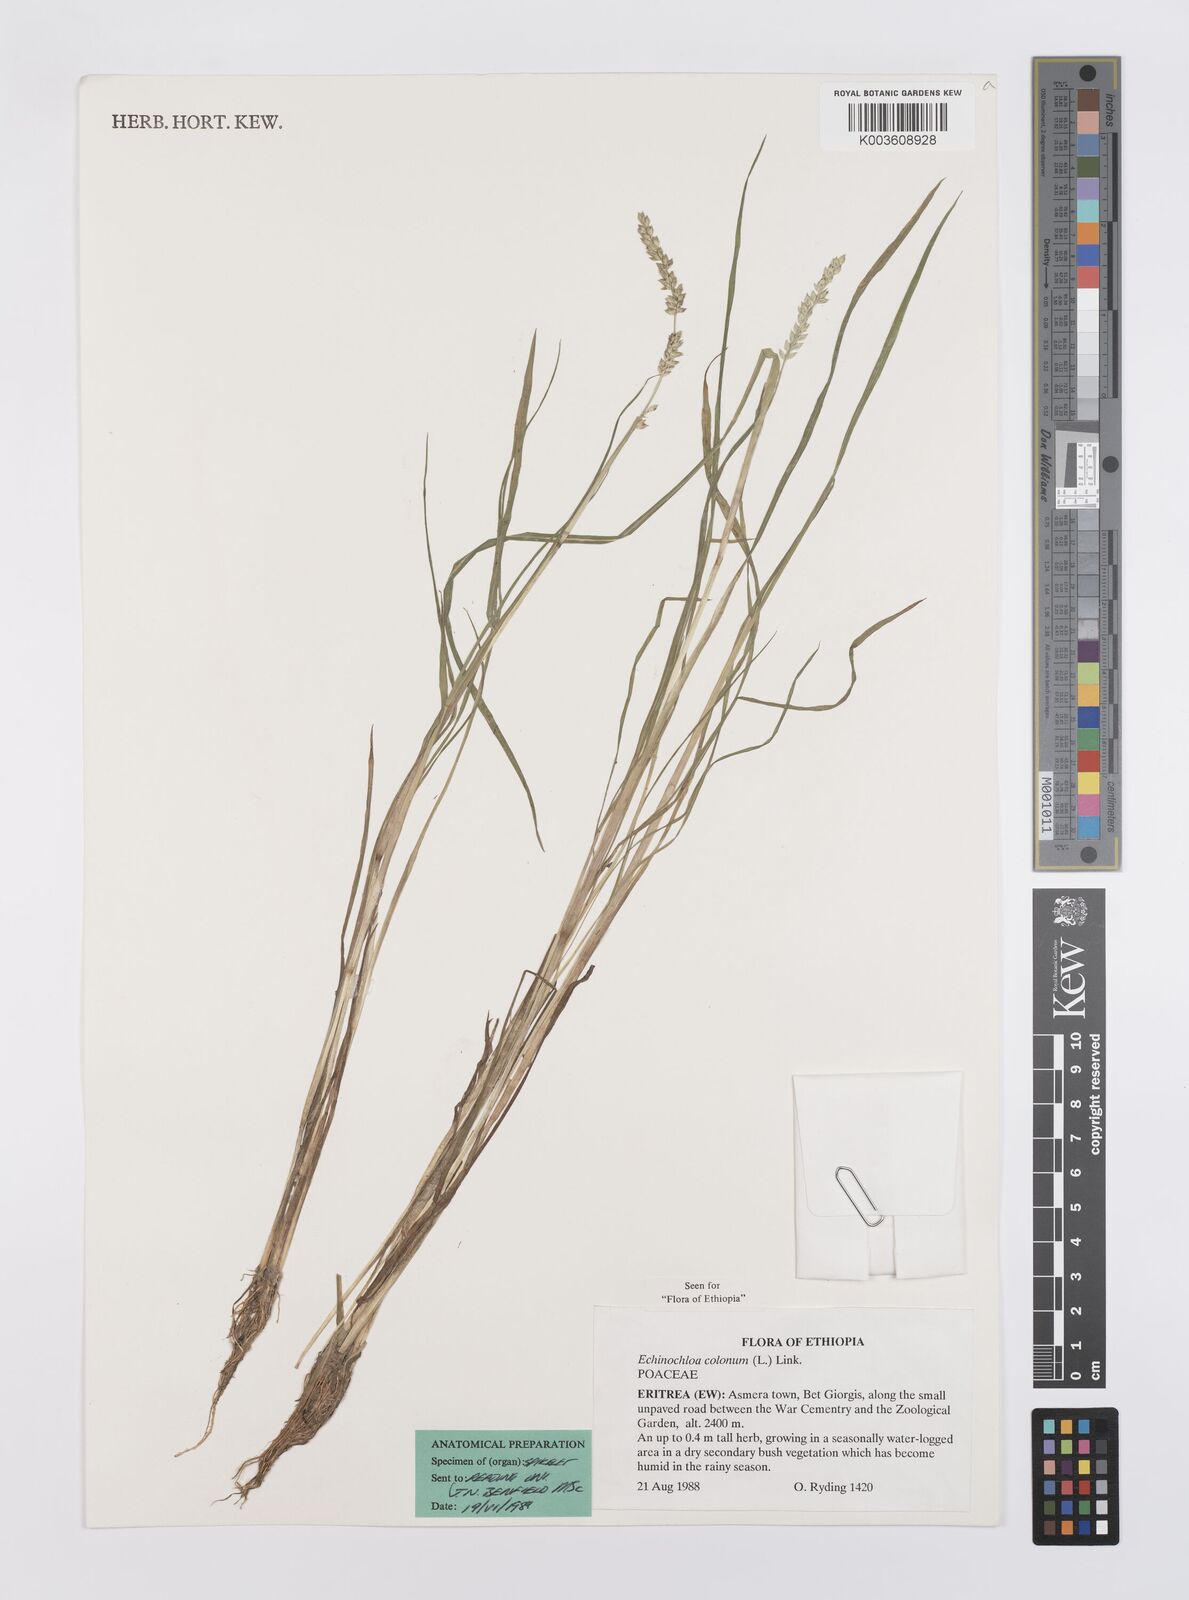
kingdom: Plantae
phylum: Tracheophyta
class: Liliopsida
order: Poales
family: Poaceae
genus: Echinochloa
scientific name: Echinochloa colonum
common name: Jungle rice
